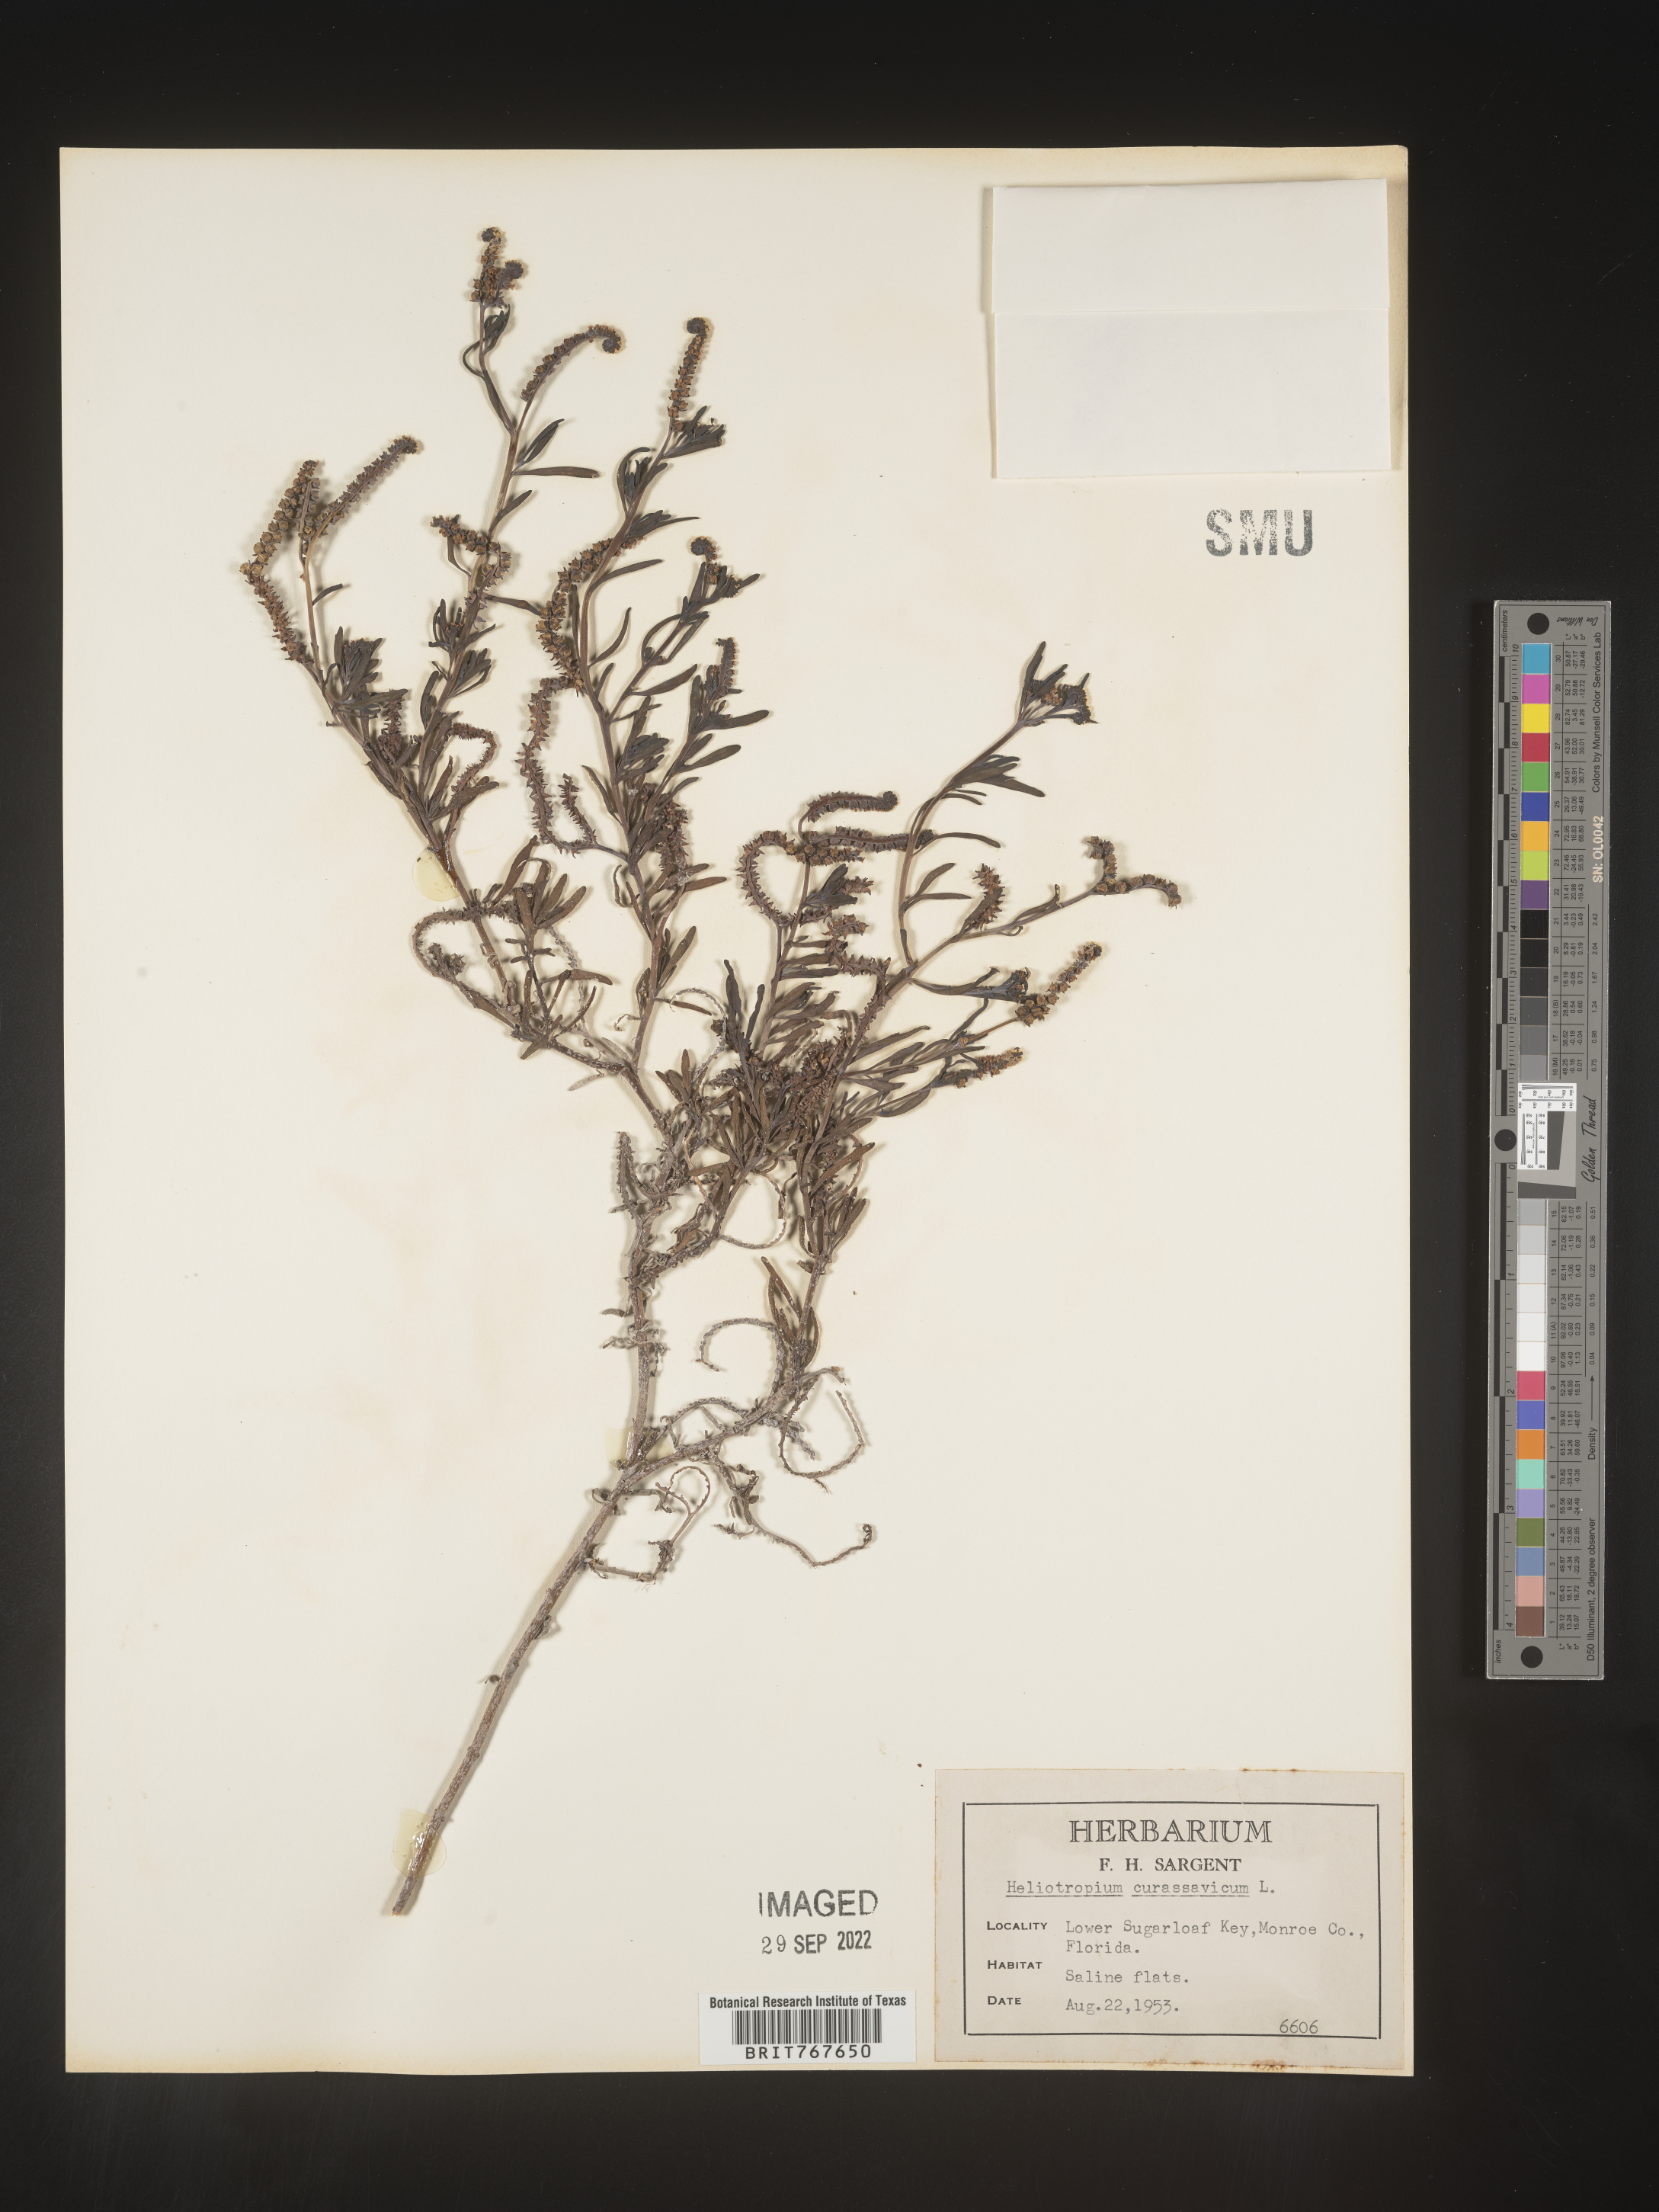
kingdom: Plantae
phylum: Tracheophyta
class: Magnoliopsida
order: Boraginales
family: Heliotropiaceae
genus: Heliotropium
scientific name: Heliotropium curassavicum
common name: Seaside heliotrope
